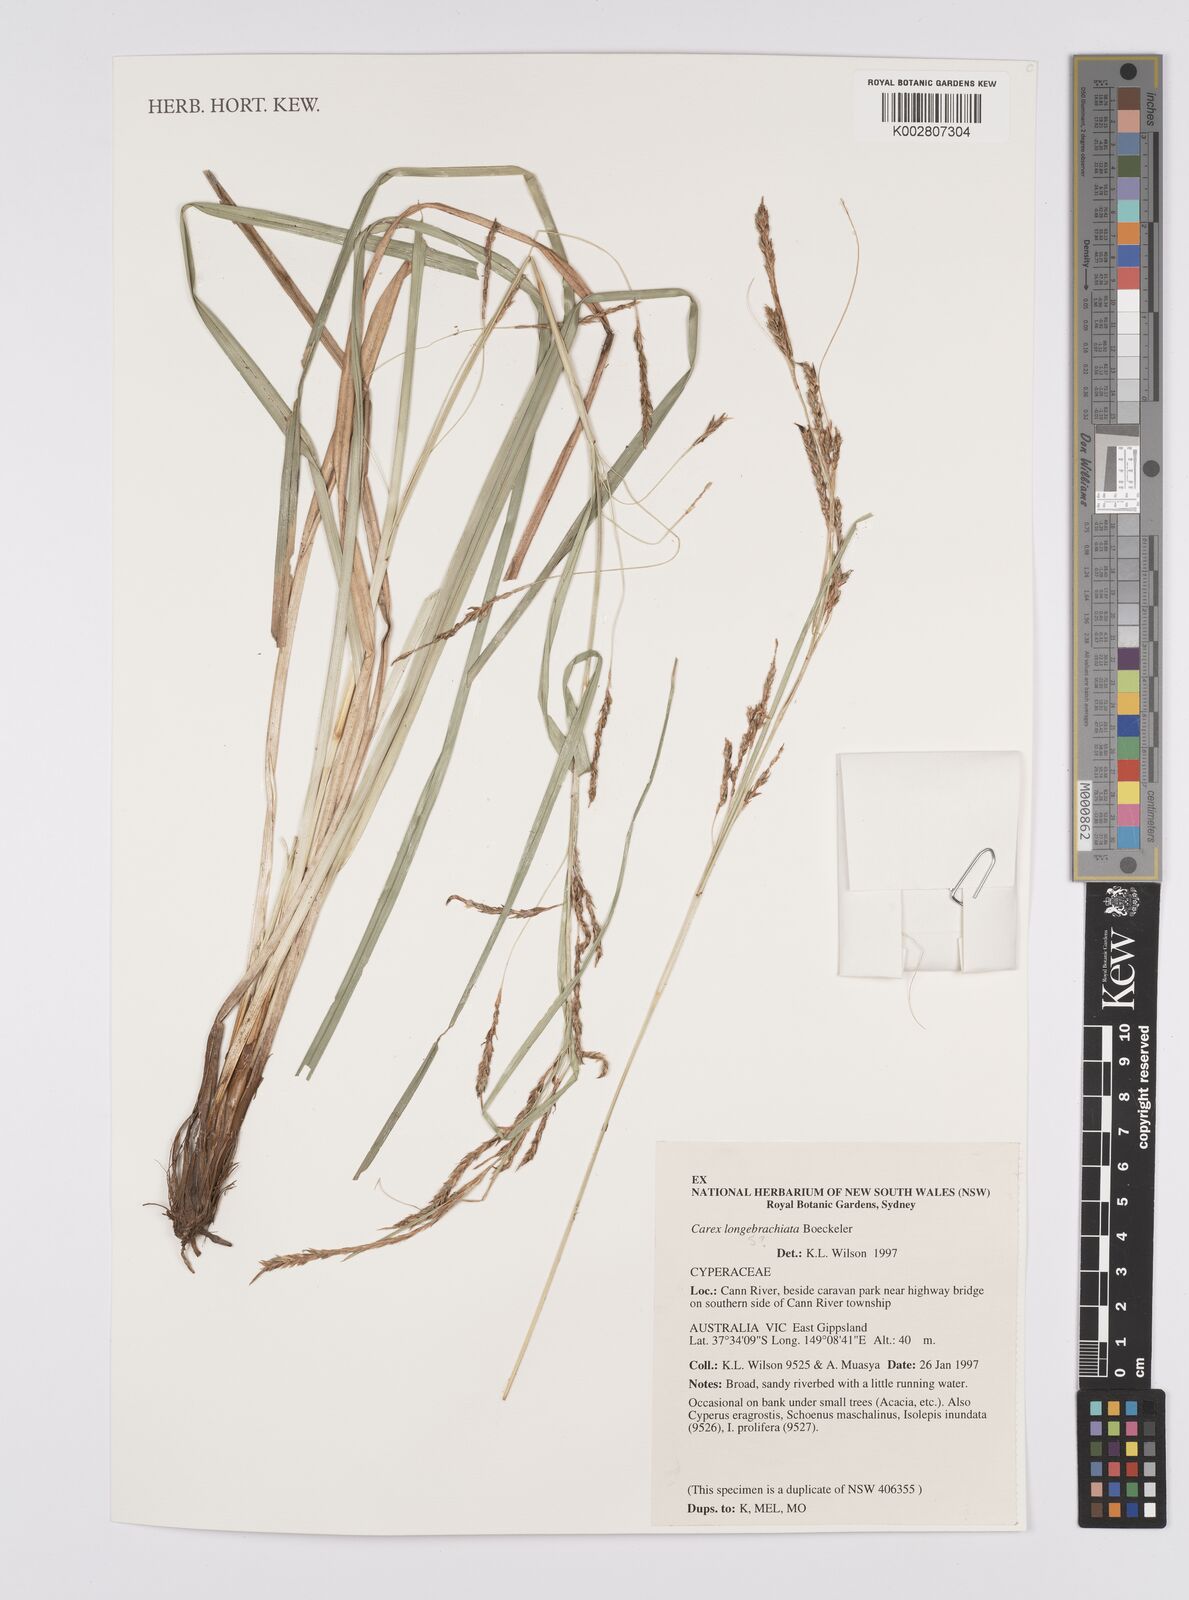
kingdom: Plantae
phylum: Tracheophyta
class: Liliopsida
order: Poales
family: Cyperaceae
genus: Carex
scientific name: Carex pseudocyperus
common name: Cyperus sedge
